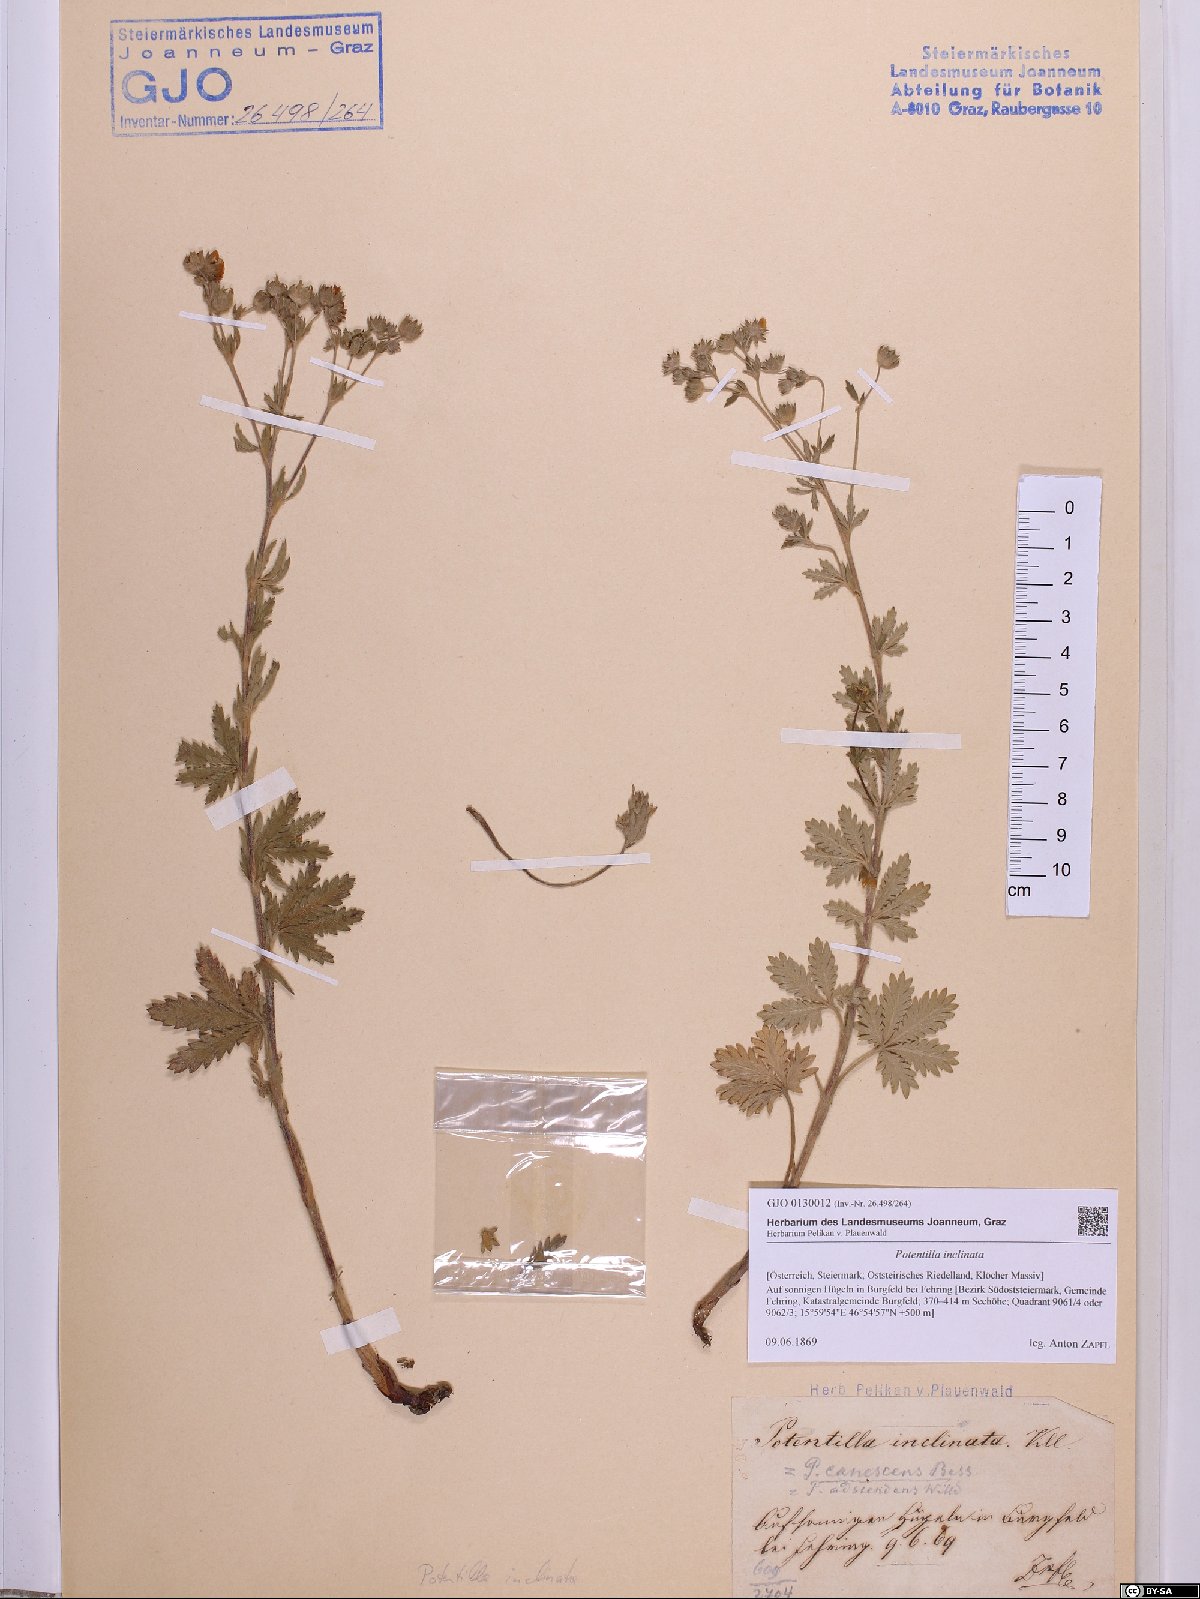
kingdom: Plantae
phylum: Tracheophyta
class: Magnoliopsida
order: Rosales
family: Rosaceae
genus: Potentilla
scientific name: Potentilla inclinata
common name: Grey cinquefoil
